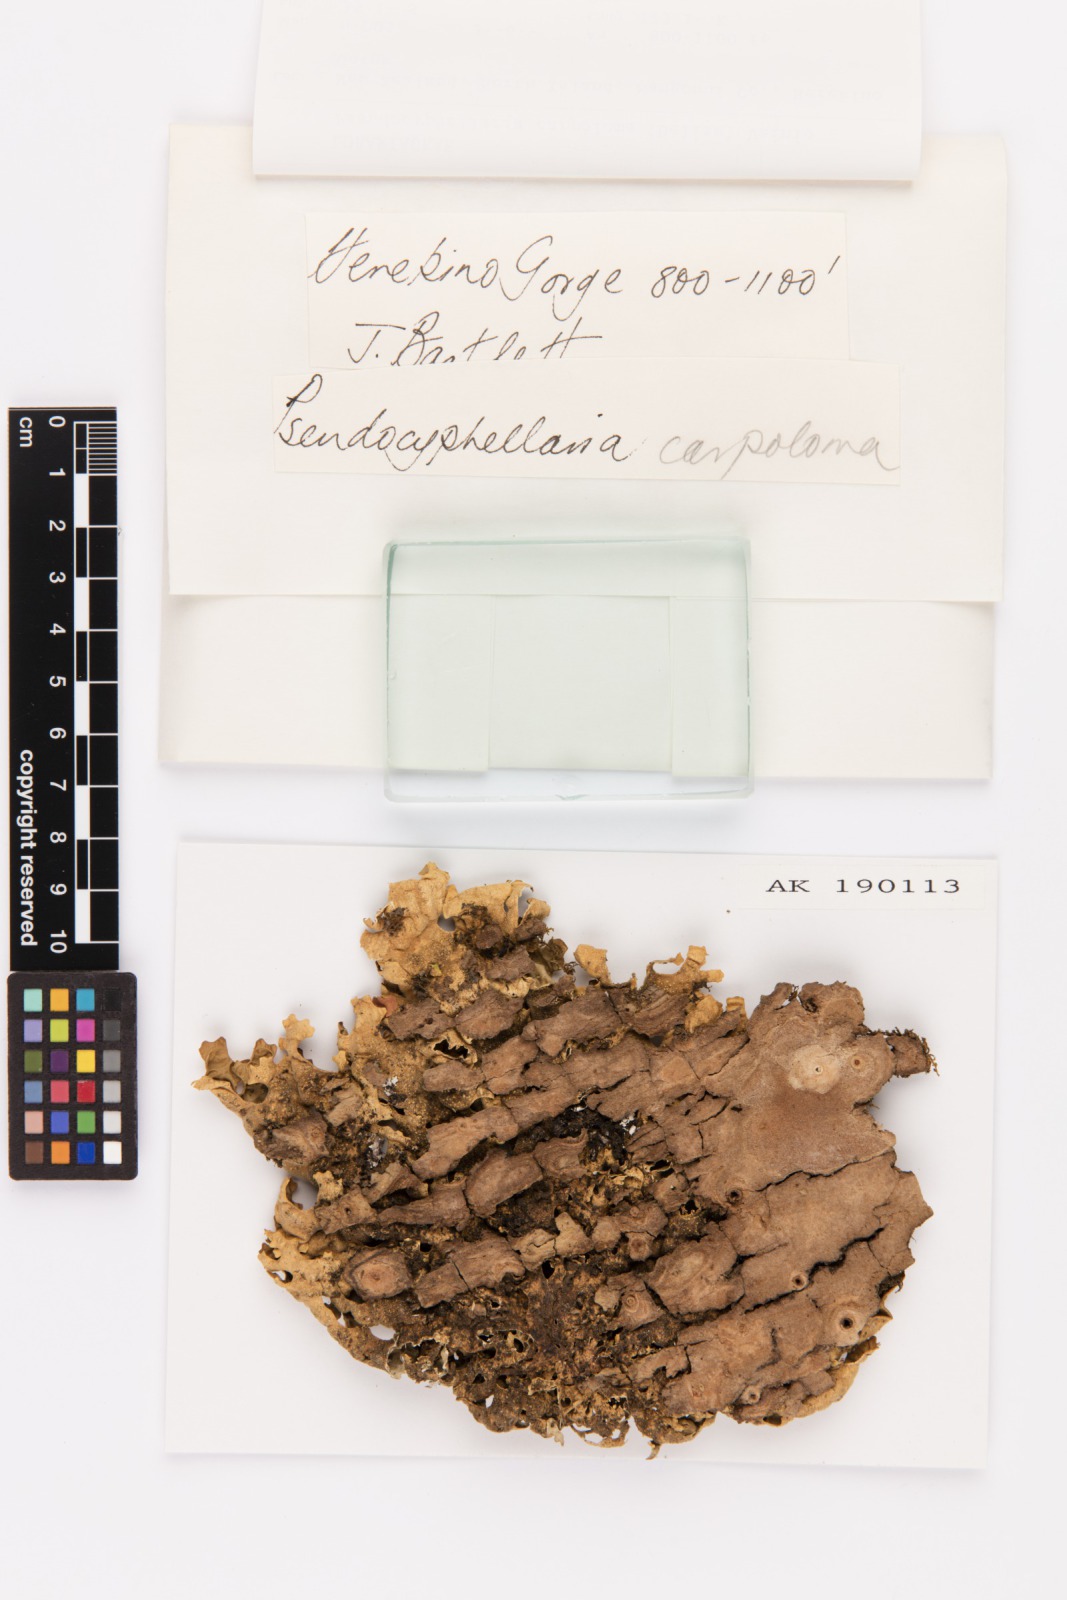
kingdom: Fungi
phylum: Ascomycota
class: Lecanoromycetes
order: Peltigerales
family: Lobariaceae
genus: Pseudocyphellaria
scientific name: Pseudocyphellaria carpoloma
